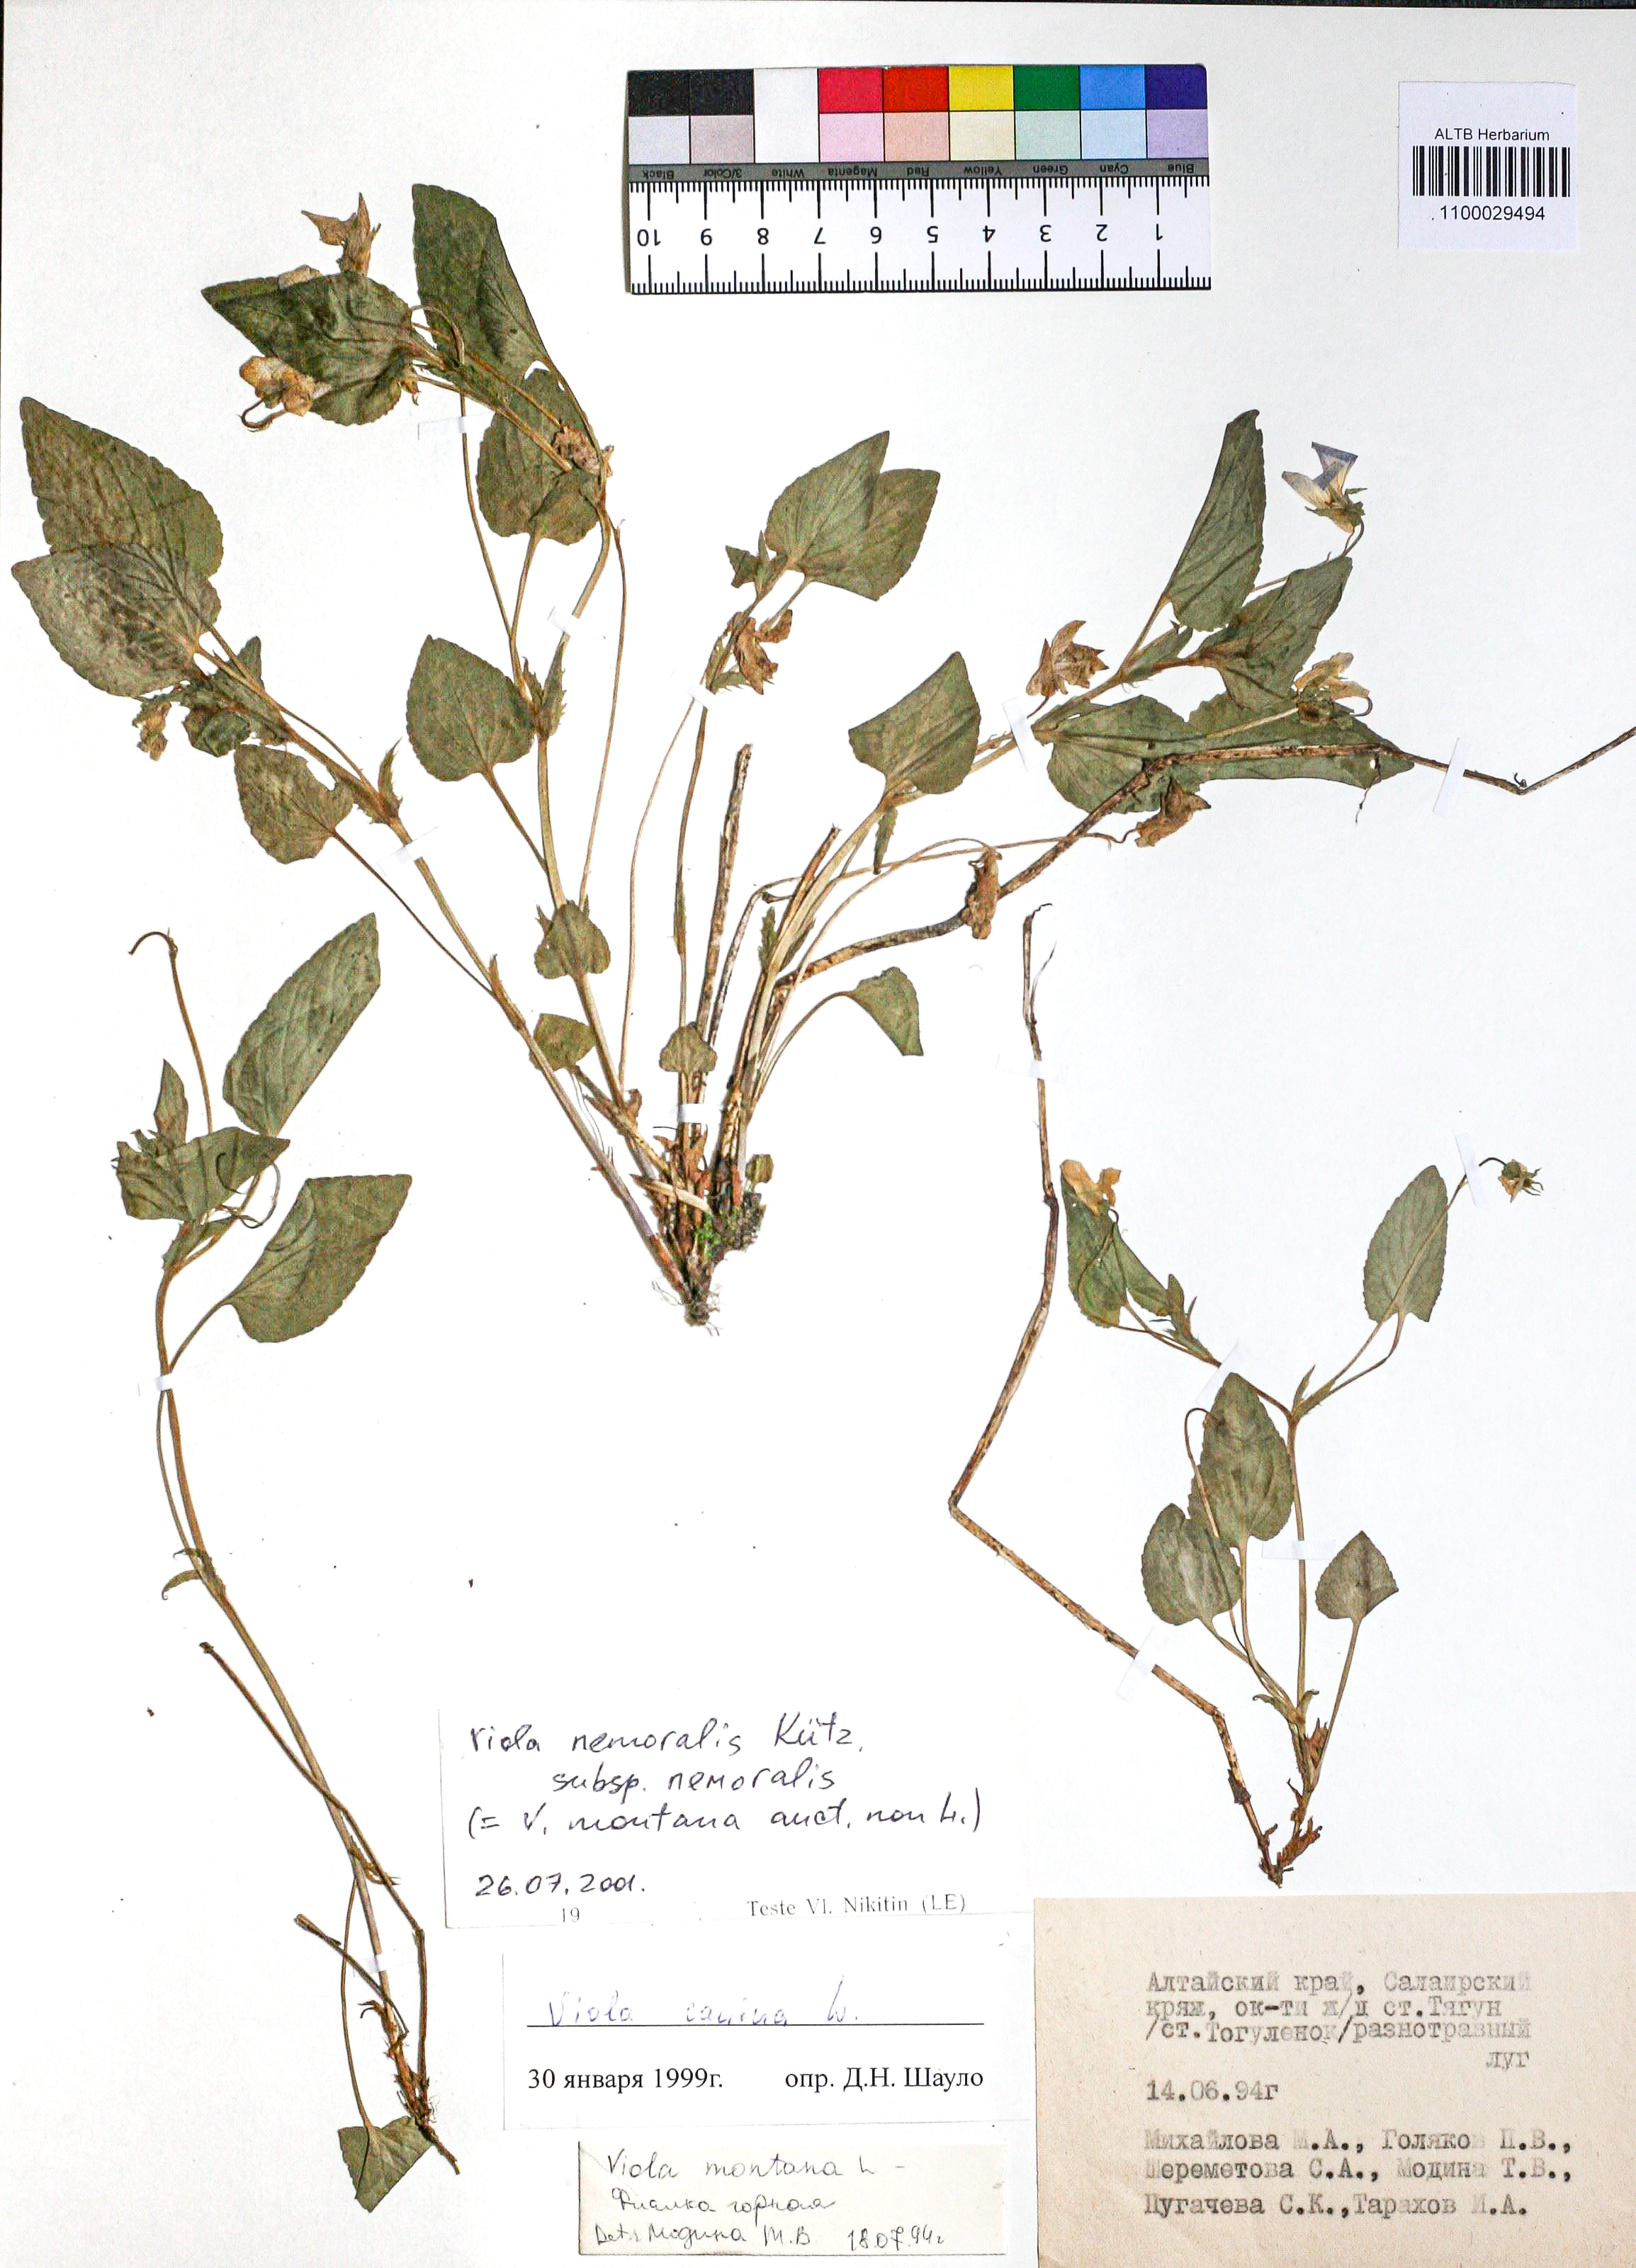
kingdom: Plantae
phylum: Tracheophyta
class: Magnoliopsida
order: Malpighiales
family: Violaceae
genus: Viola
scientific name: Viola ruppii
